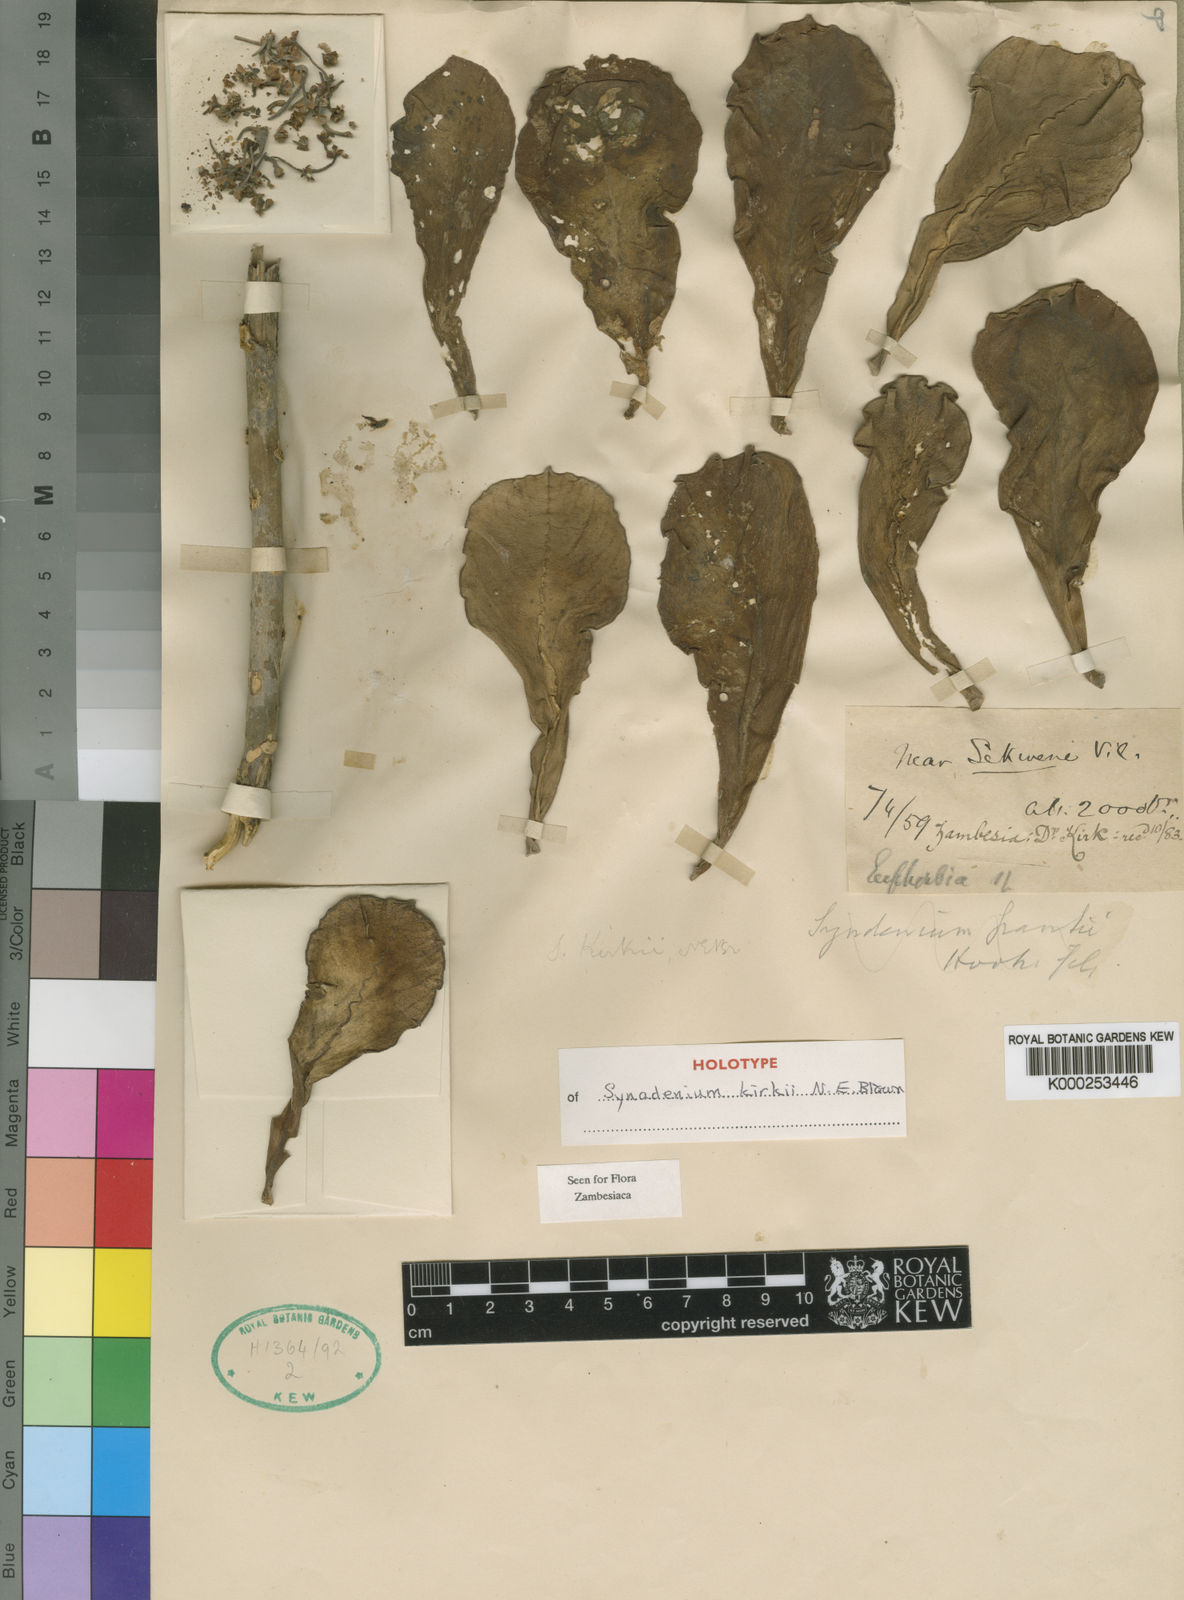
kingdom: Plantae
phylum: Tracheophyta
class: Magnoliopsida
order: Malpighiales
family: Euphorbiaceae
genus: Euphorbia
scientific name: Euphorbia kirkii
